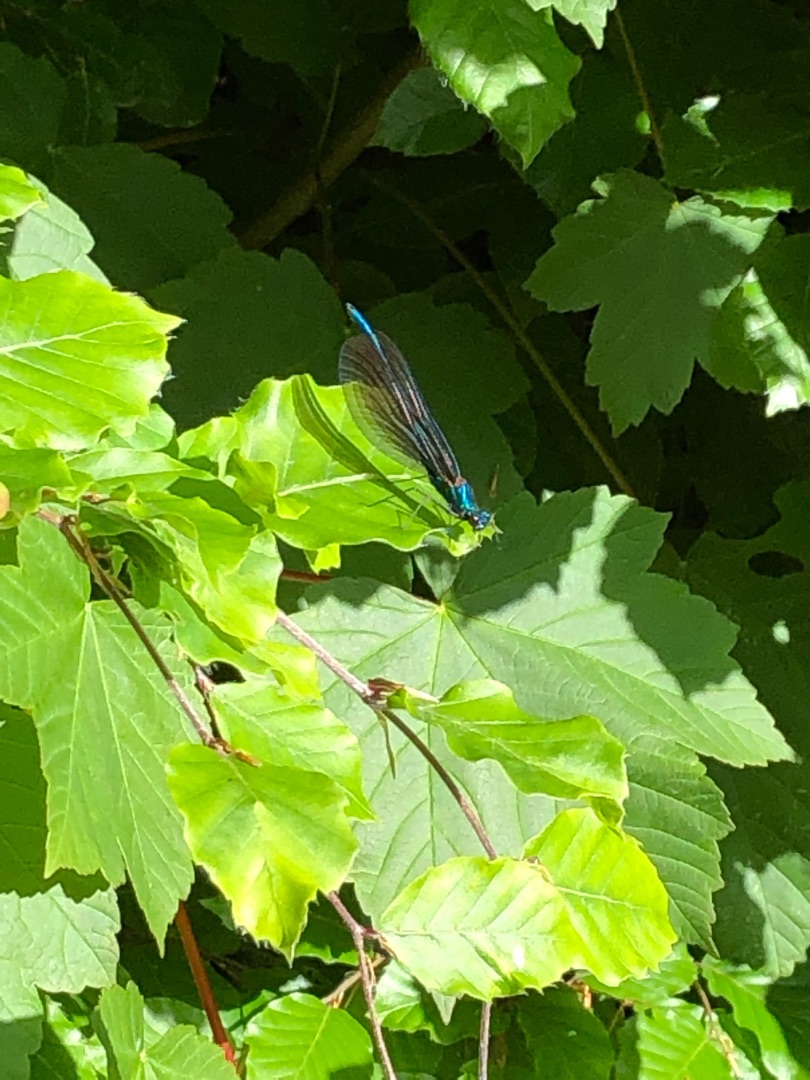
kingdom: Animalia
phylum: Arthropoda
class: Insecta
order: Odonata
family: Calopterygidae
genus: Calopteryx
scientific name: Calopteryx virgo
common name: Blåvinget pragtvandnymfe
